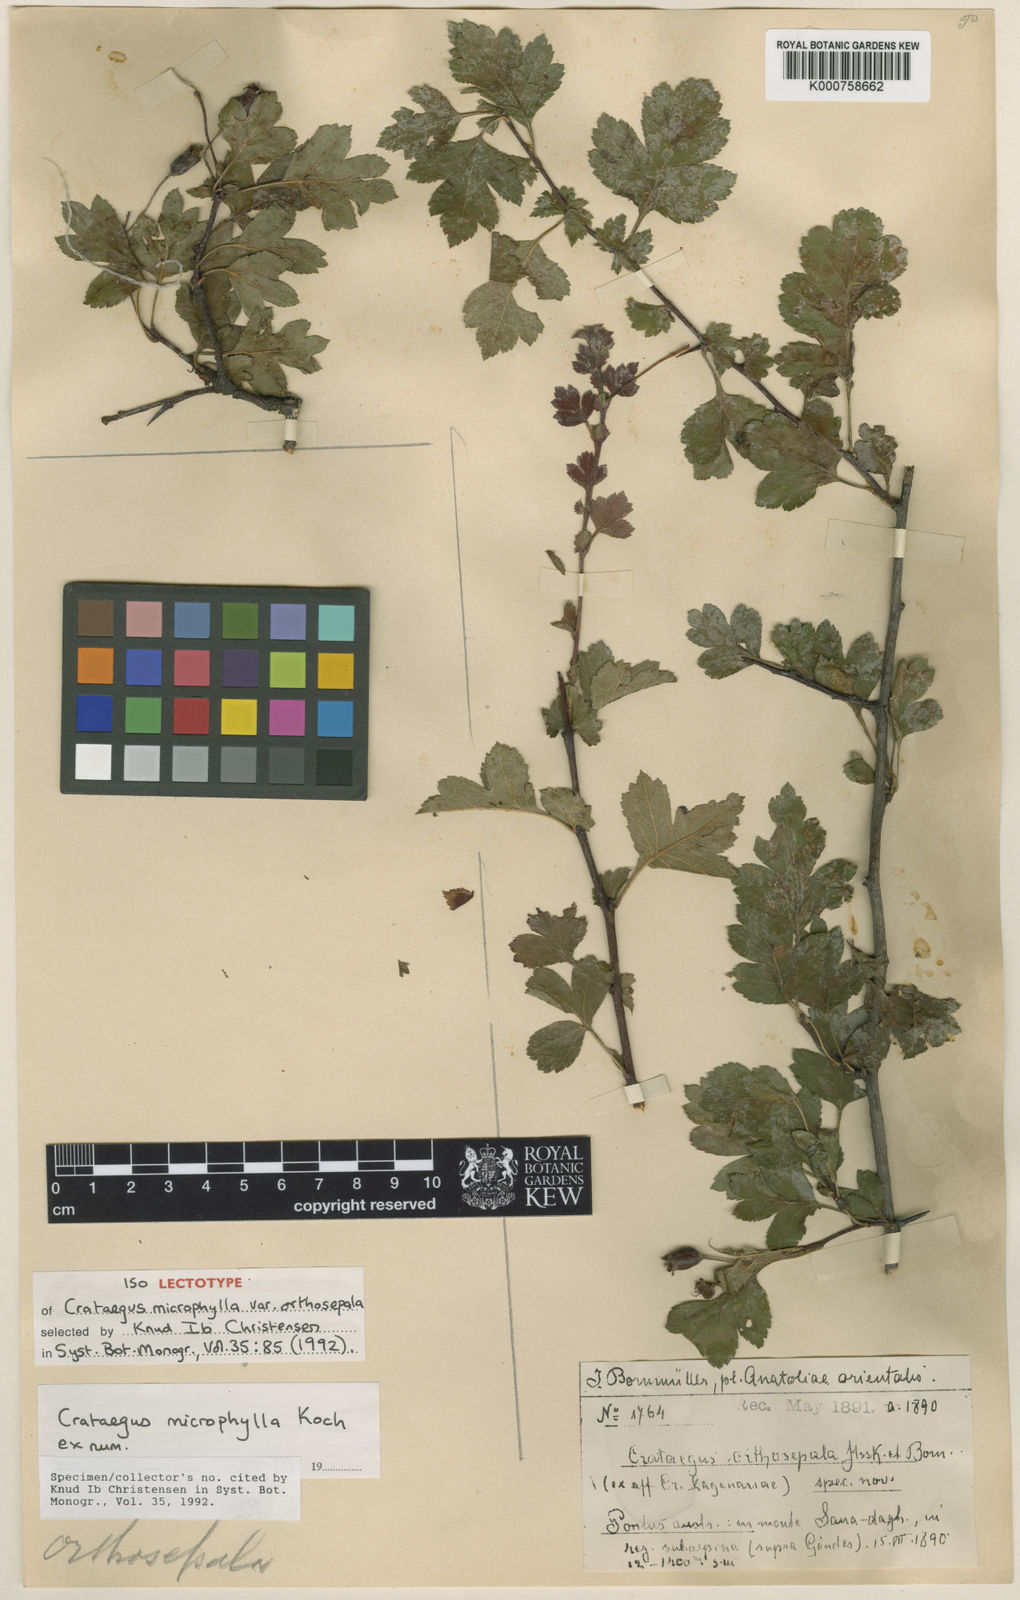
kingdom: Plantae
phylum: Tracheophyta
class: Magnoliopsida
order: Rosales
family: Rosaceae
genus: Crataegus
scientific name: Crataegus microphylla
